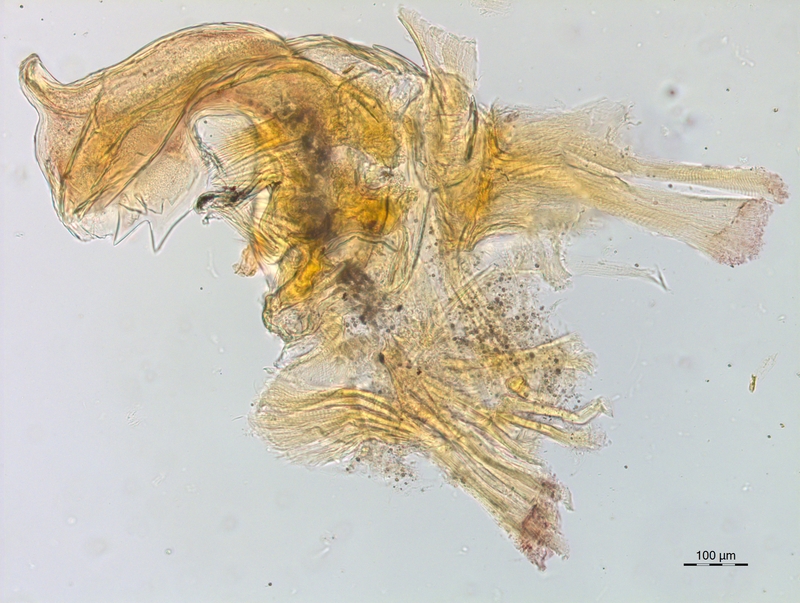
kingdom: Animalia
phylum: Arthropoda
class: Diplopoda
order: Chordeumatida
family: Craspedosomatidae
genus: Craspedosoma
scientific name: Craspedosoma taurinorum
